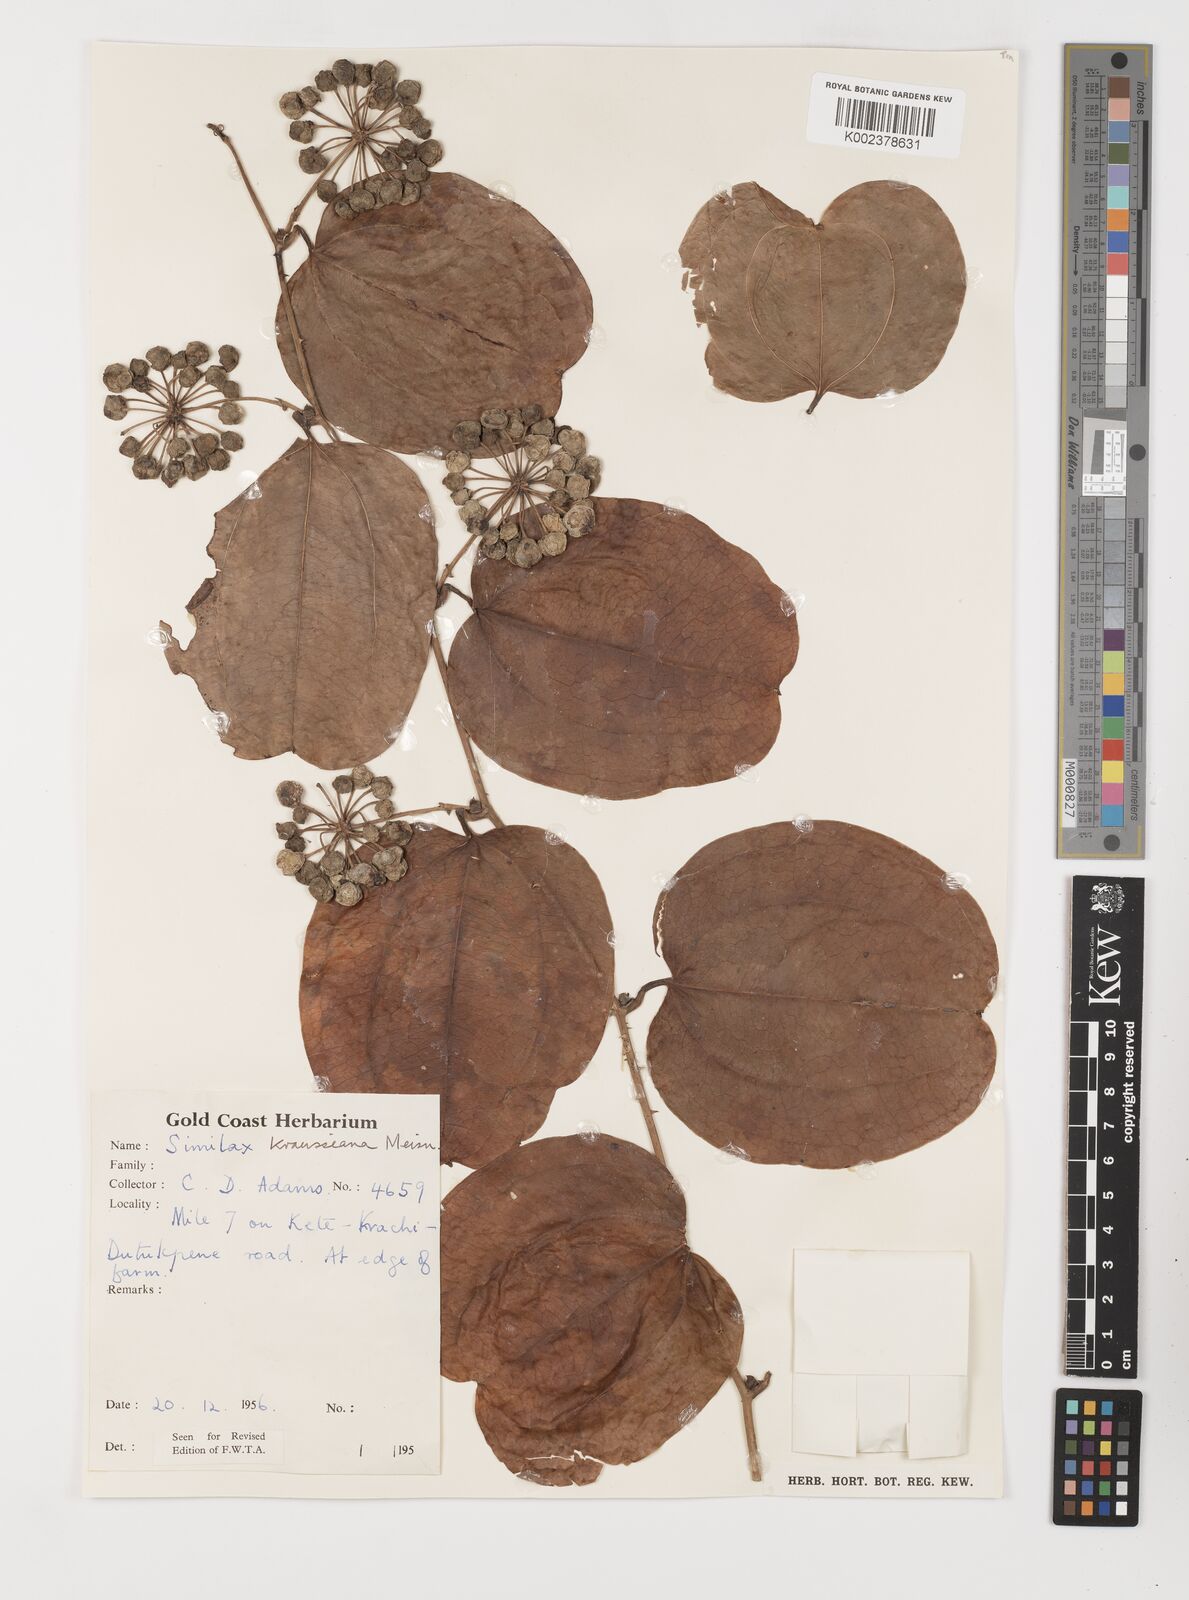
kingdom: Plantae
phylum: Tracheophyta
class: Liliopsida
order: Liliales
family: Smilacaceae
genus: Smilax
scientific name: Smilax anceps
